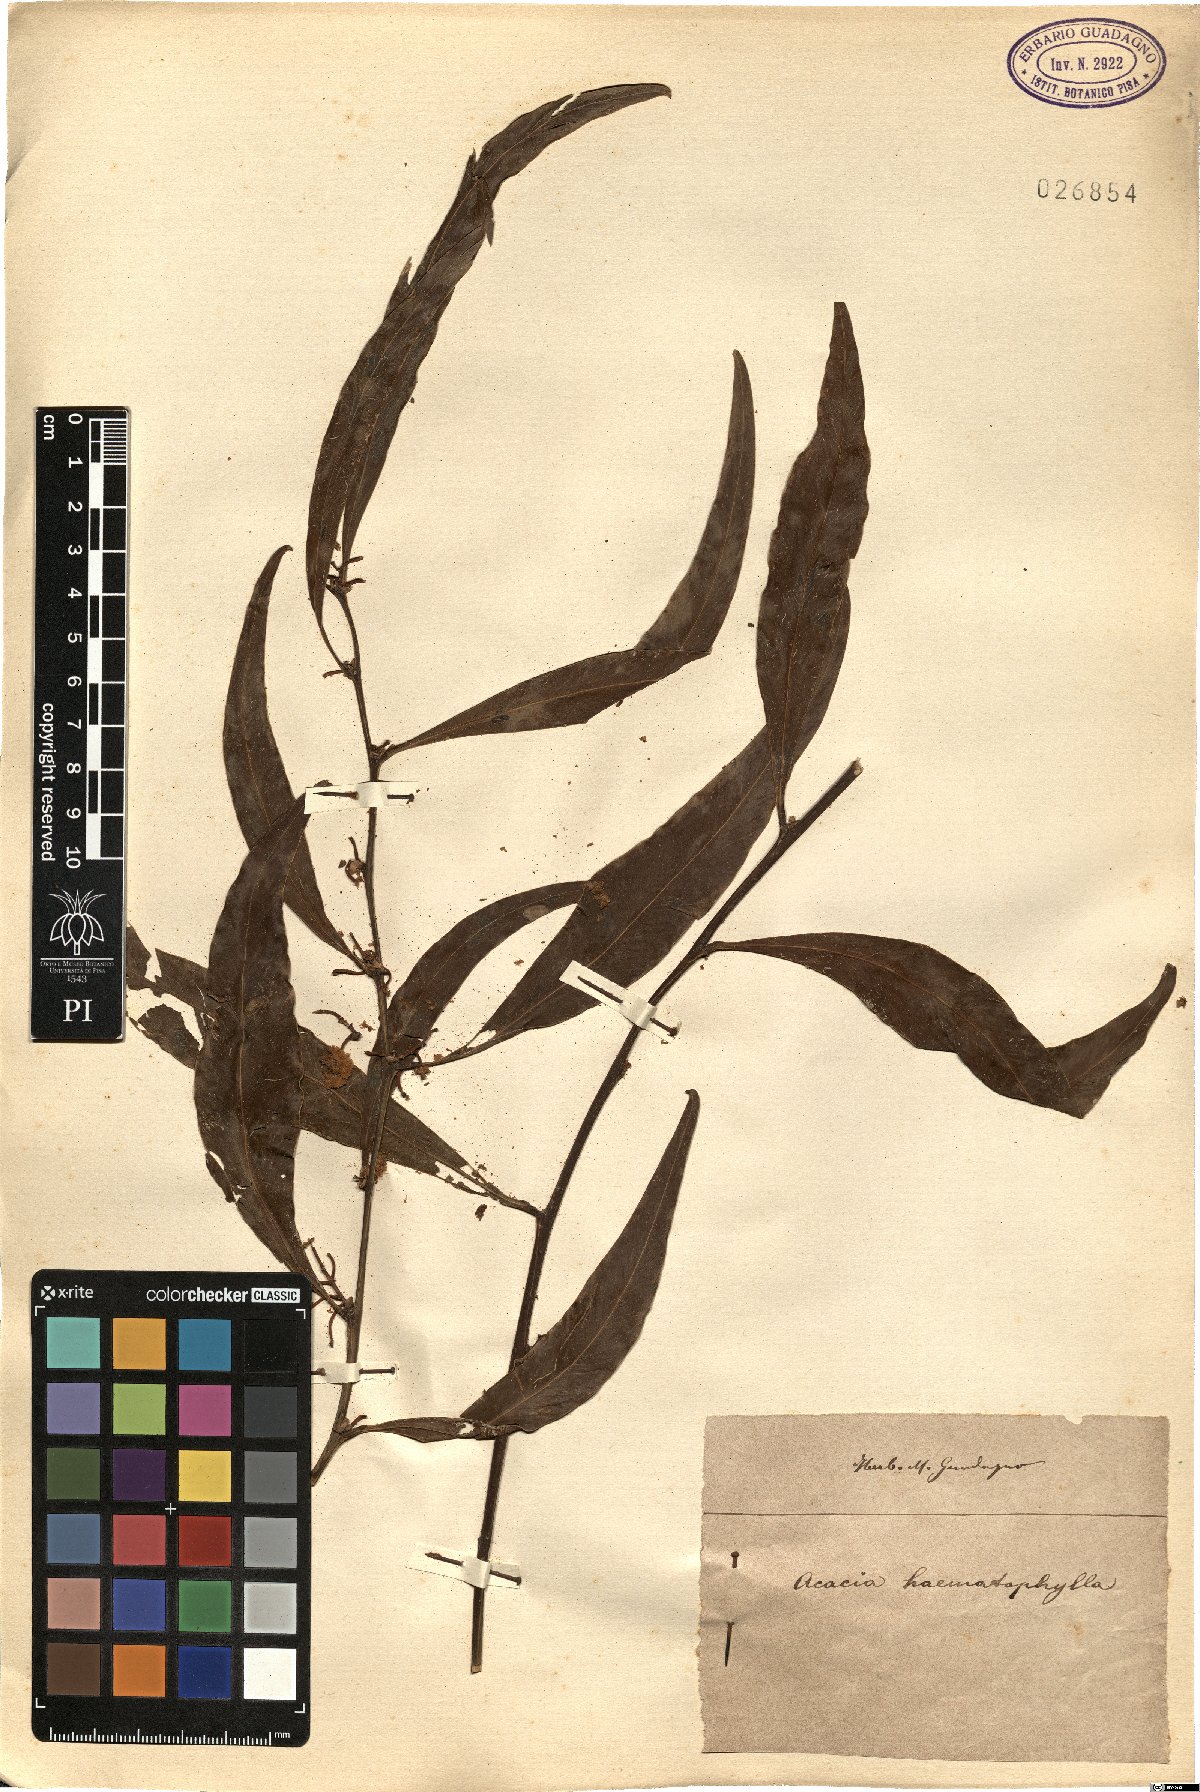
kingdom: Plantae
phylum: Tracheophyta
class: Magnoliopsida
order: Fabales
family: Fabaceae
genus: Acacia
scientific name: Acacia
